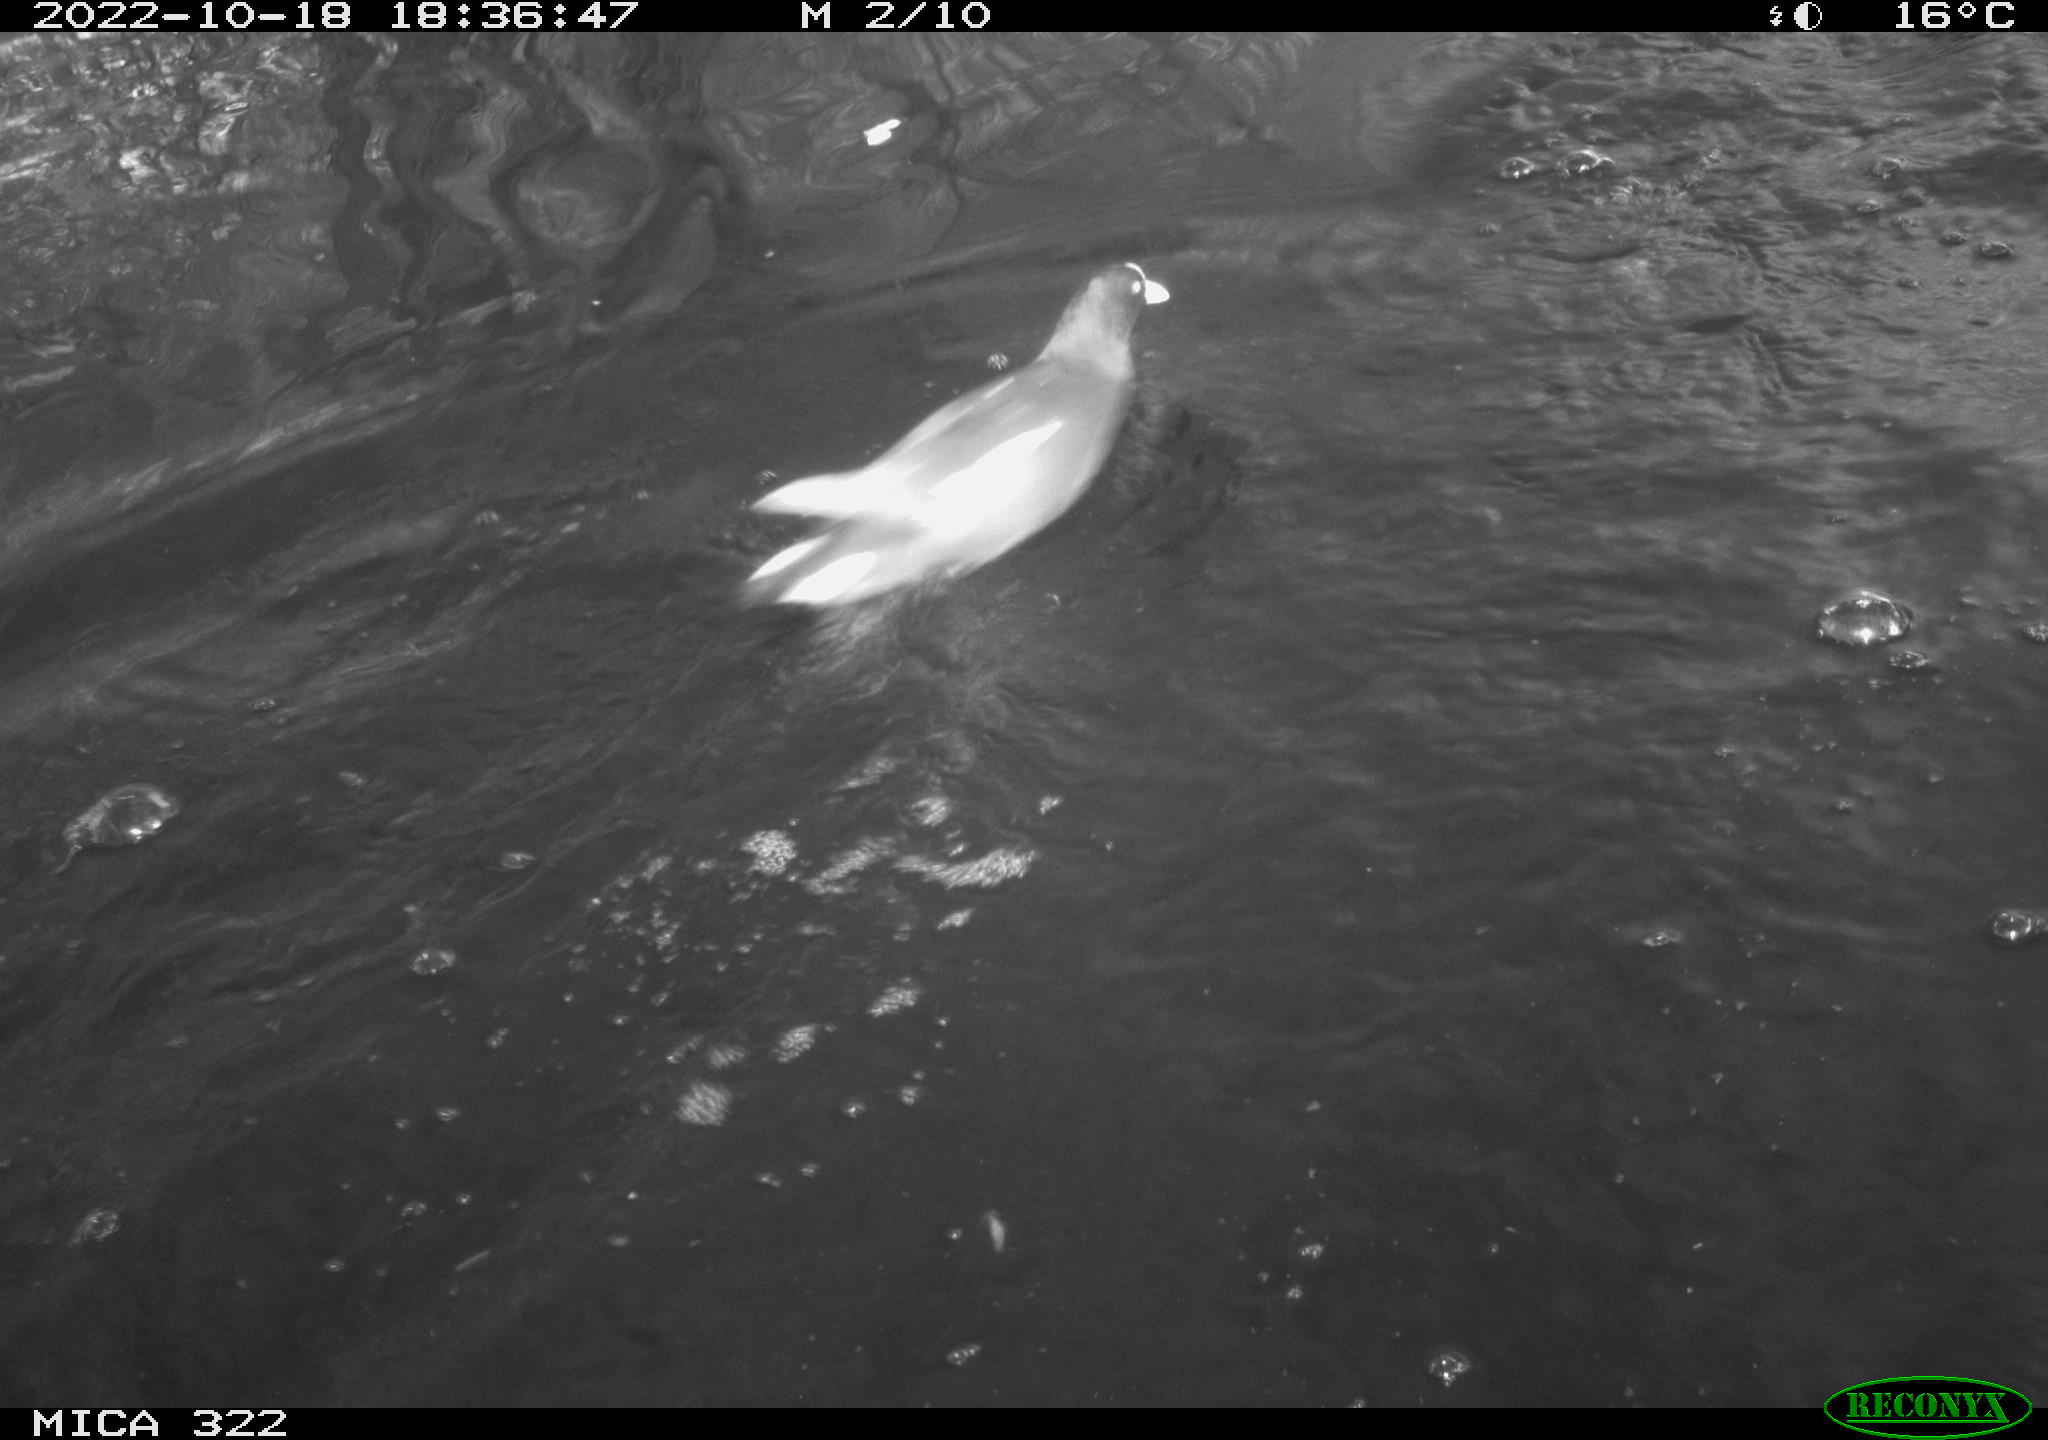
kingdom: Animalia
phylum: Chordata
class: Mammalia
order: Rodentia
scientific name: Rodentia
